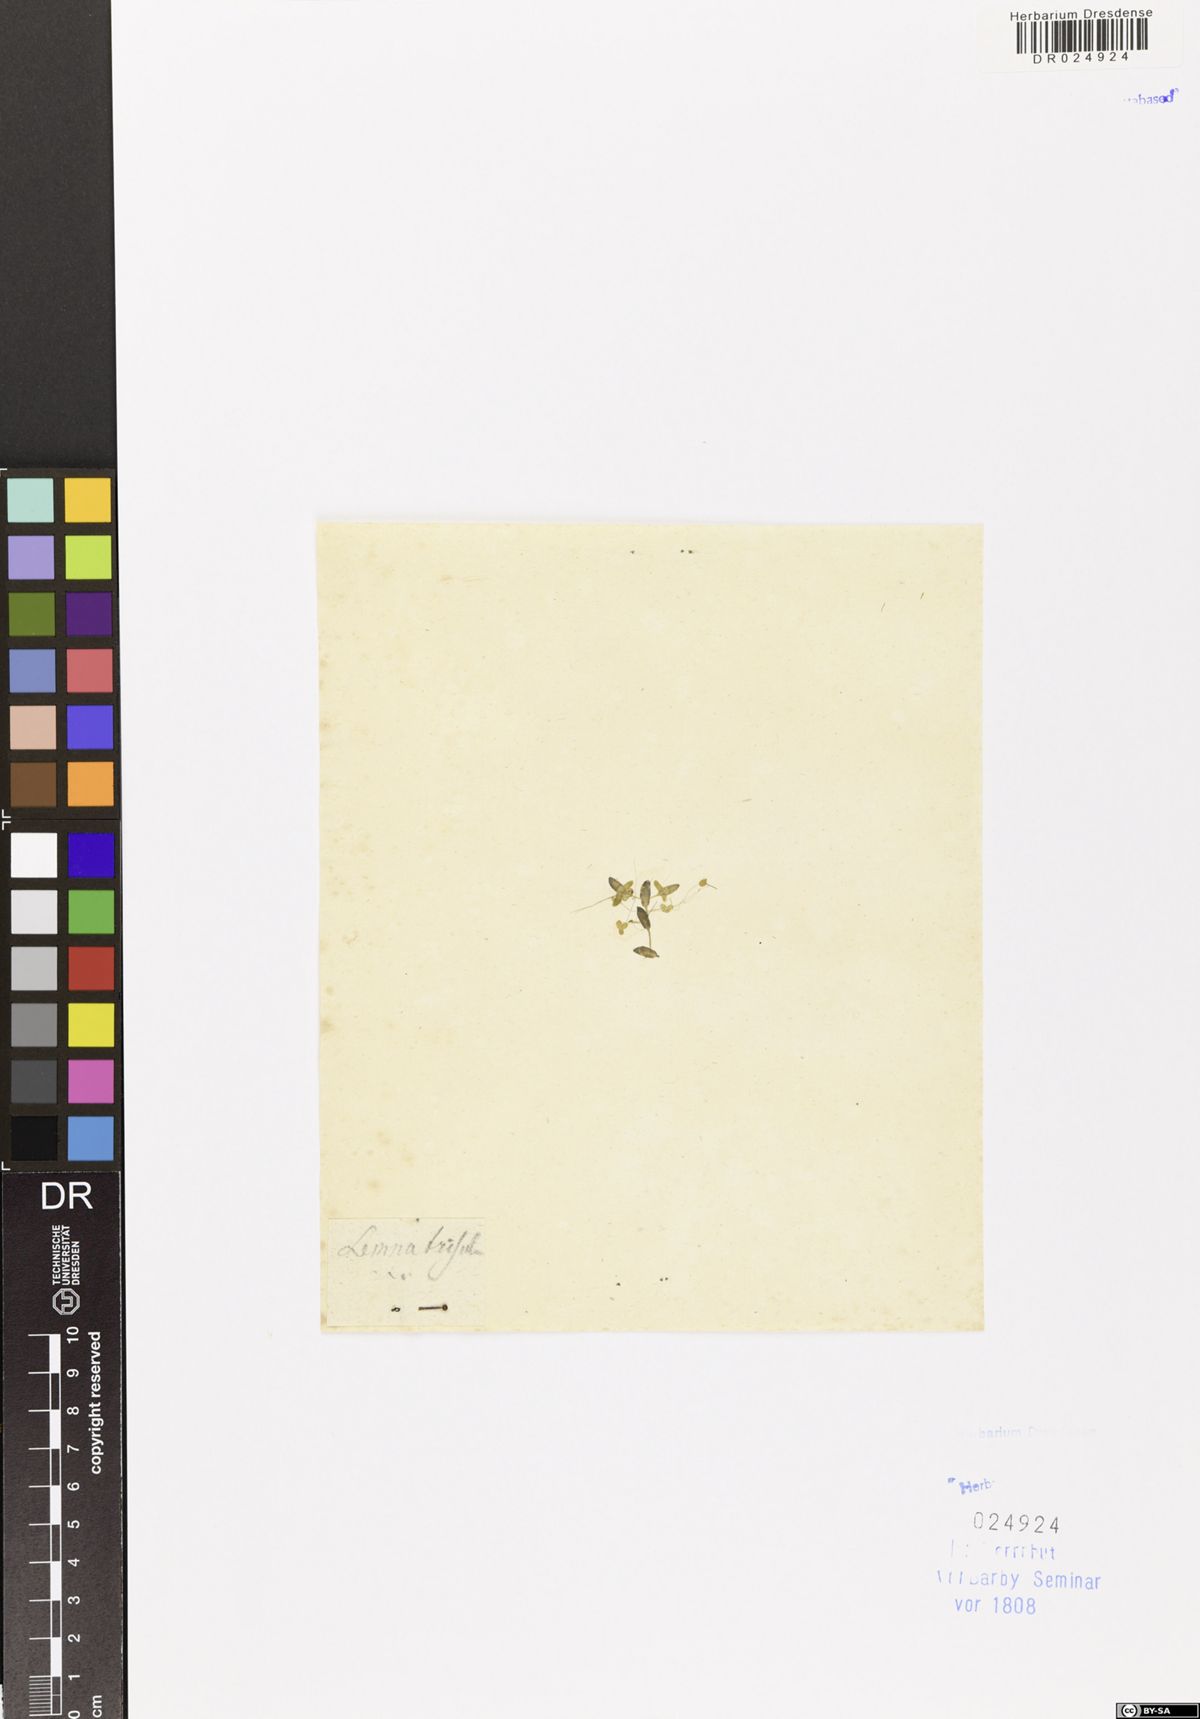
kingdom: Plantae
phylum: Tracheophyta
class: Liliopsida
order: Alismatales
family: Araceae
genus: Lemna
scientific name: Lemna trisulca
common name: Ivy-leaved duckweed
